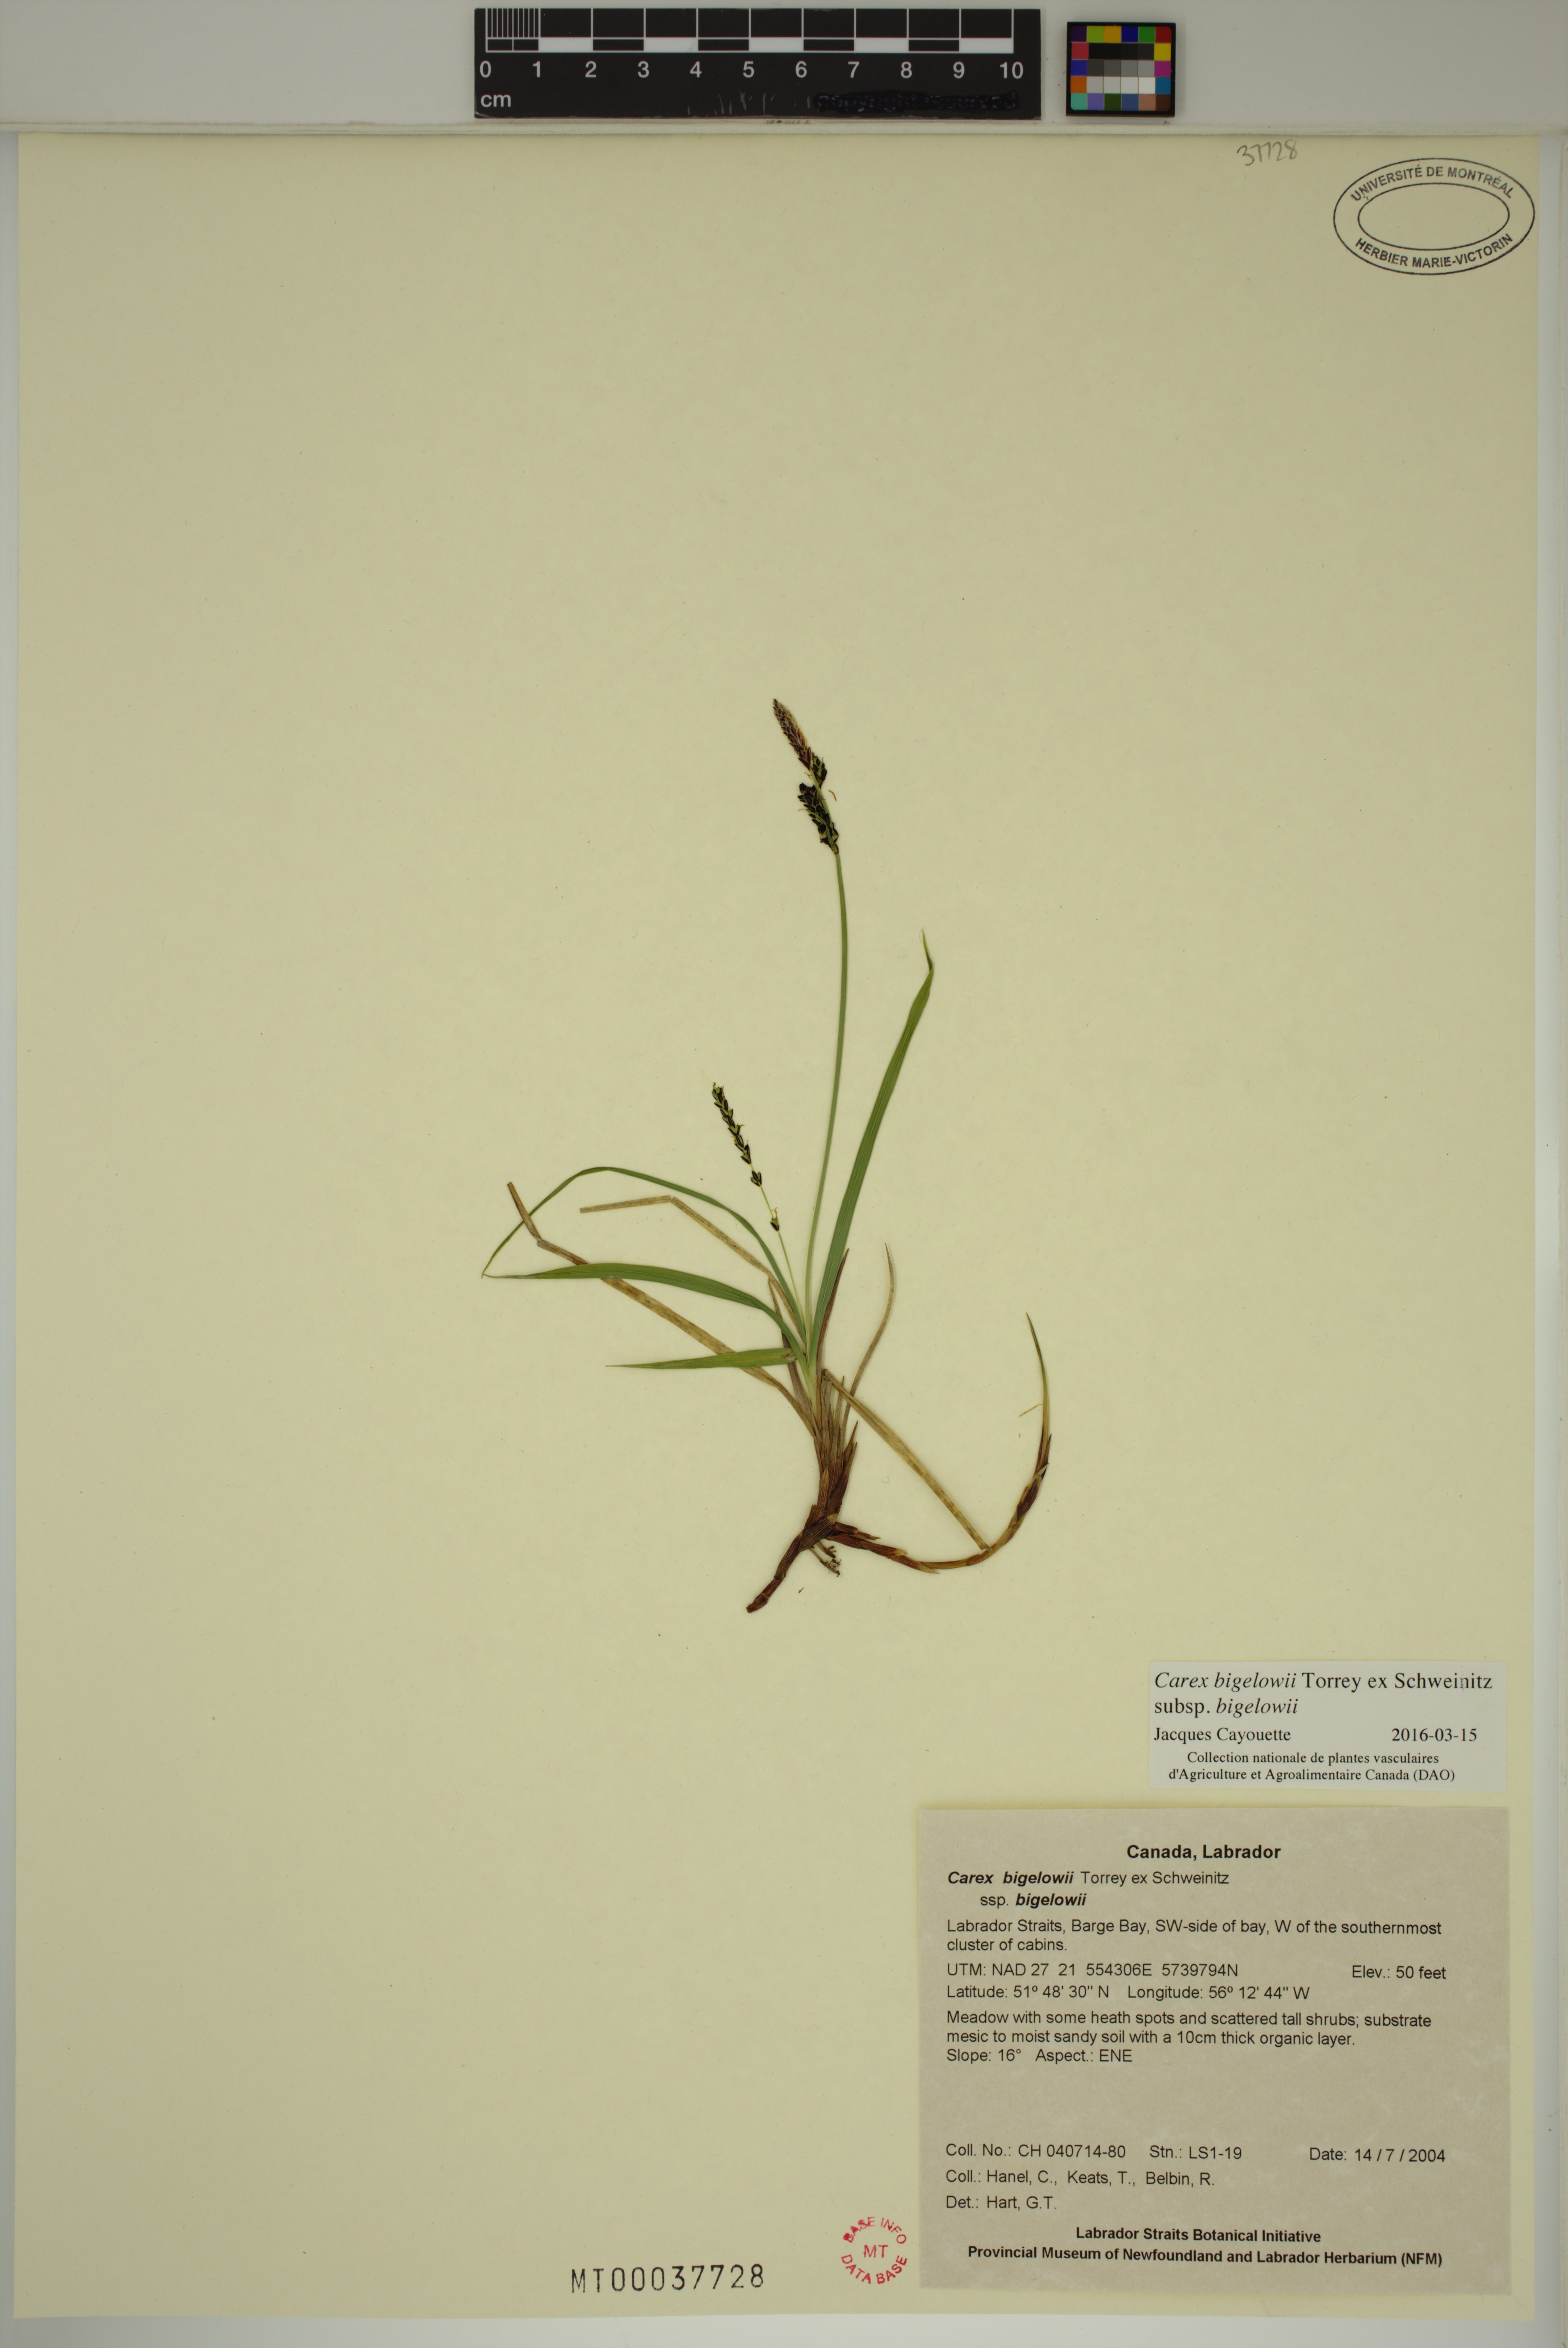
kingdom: Plantae
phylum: Tracheophyta
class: Liliopsida
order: Poales
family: Cyperaceae
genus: Carex
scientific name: Carex bigelowii
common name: Stiff sedge
